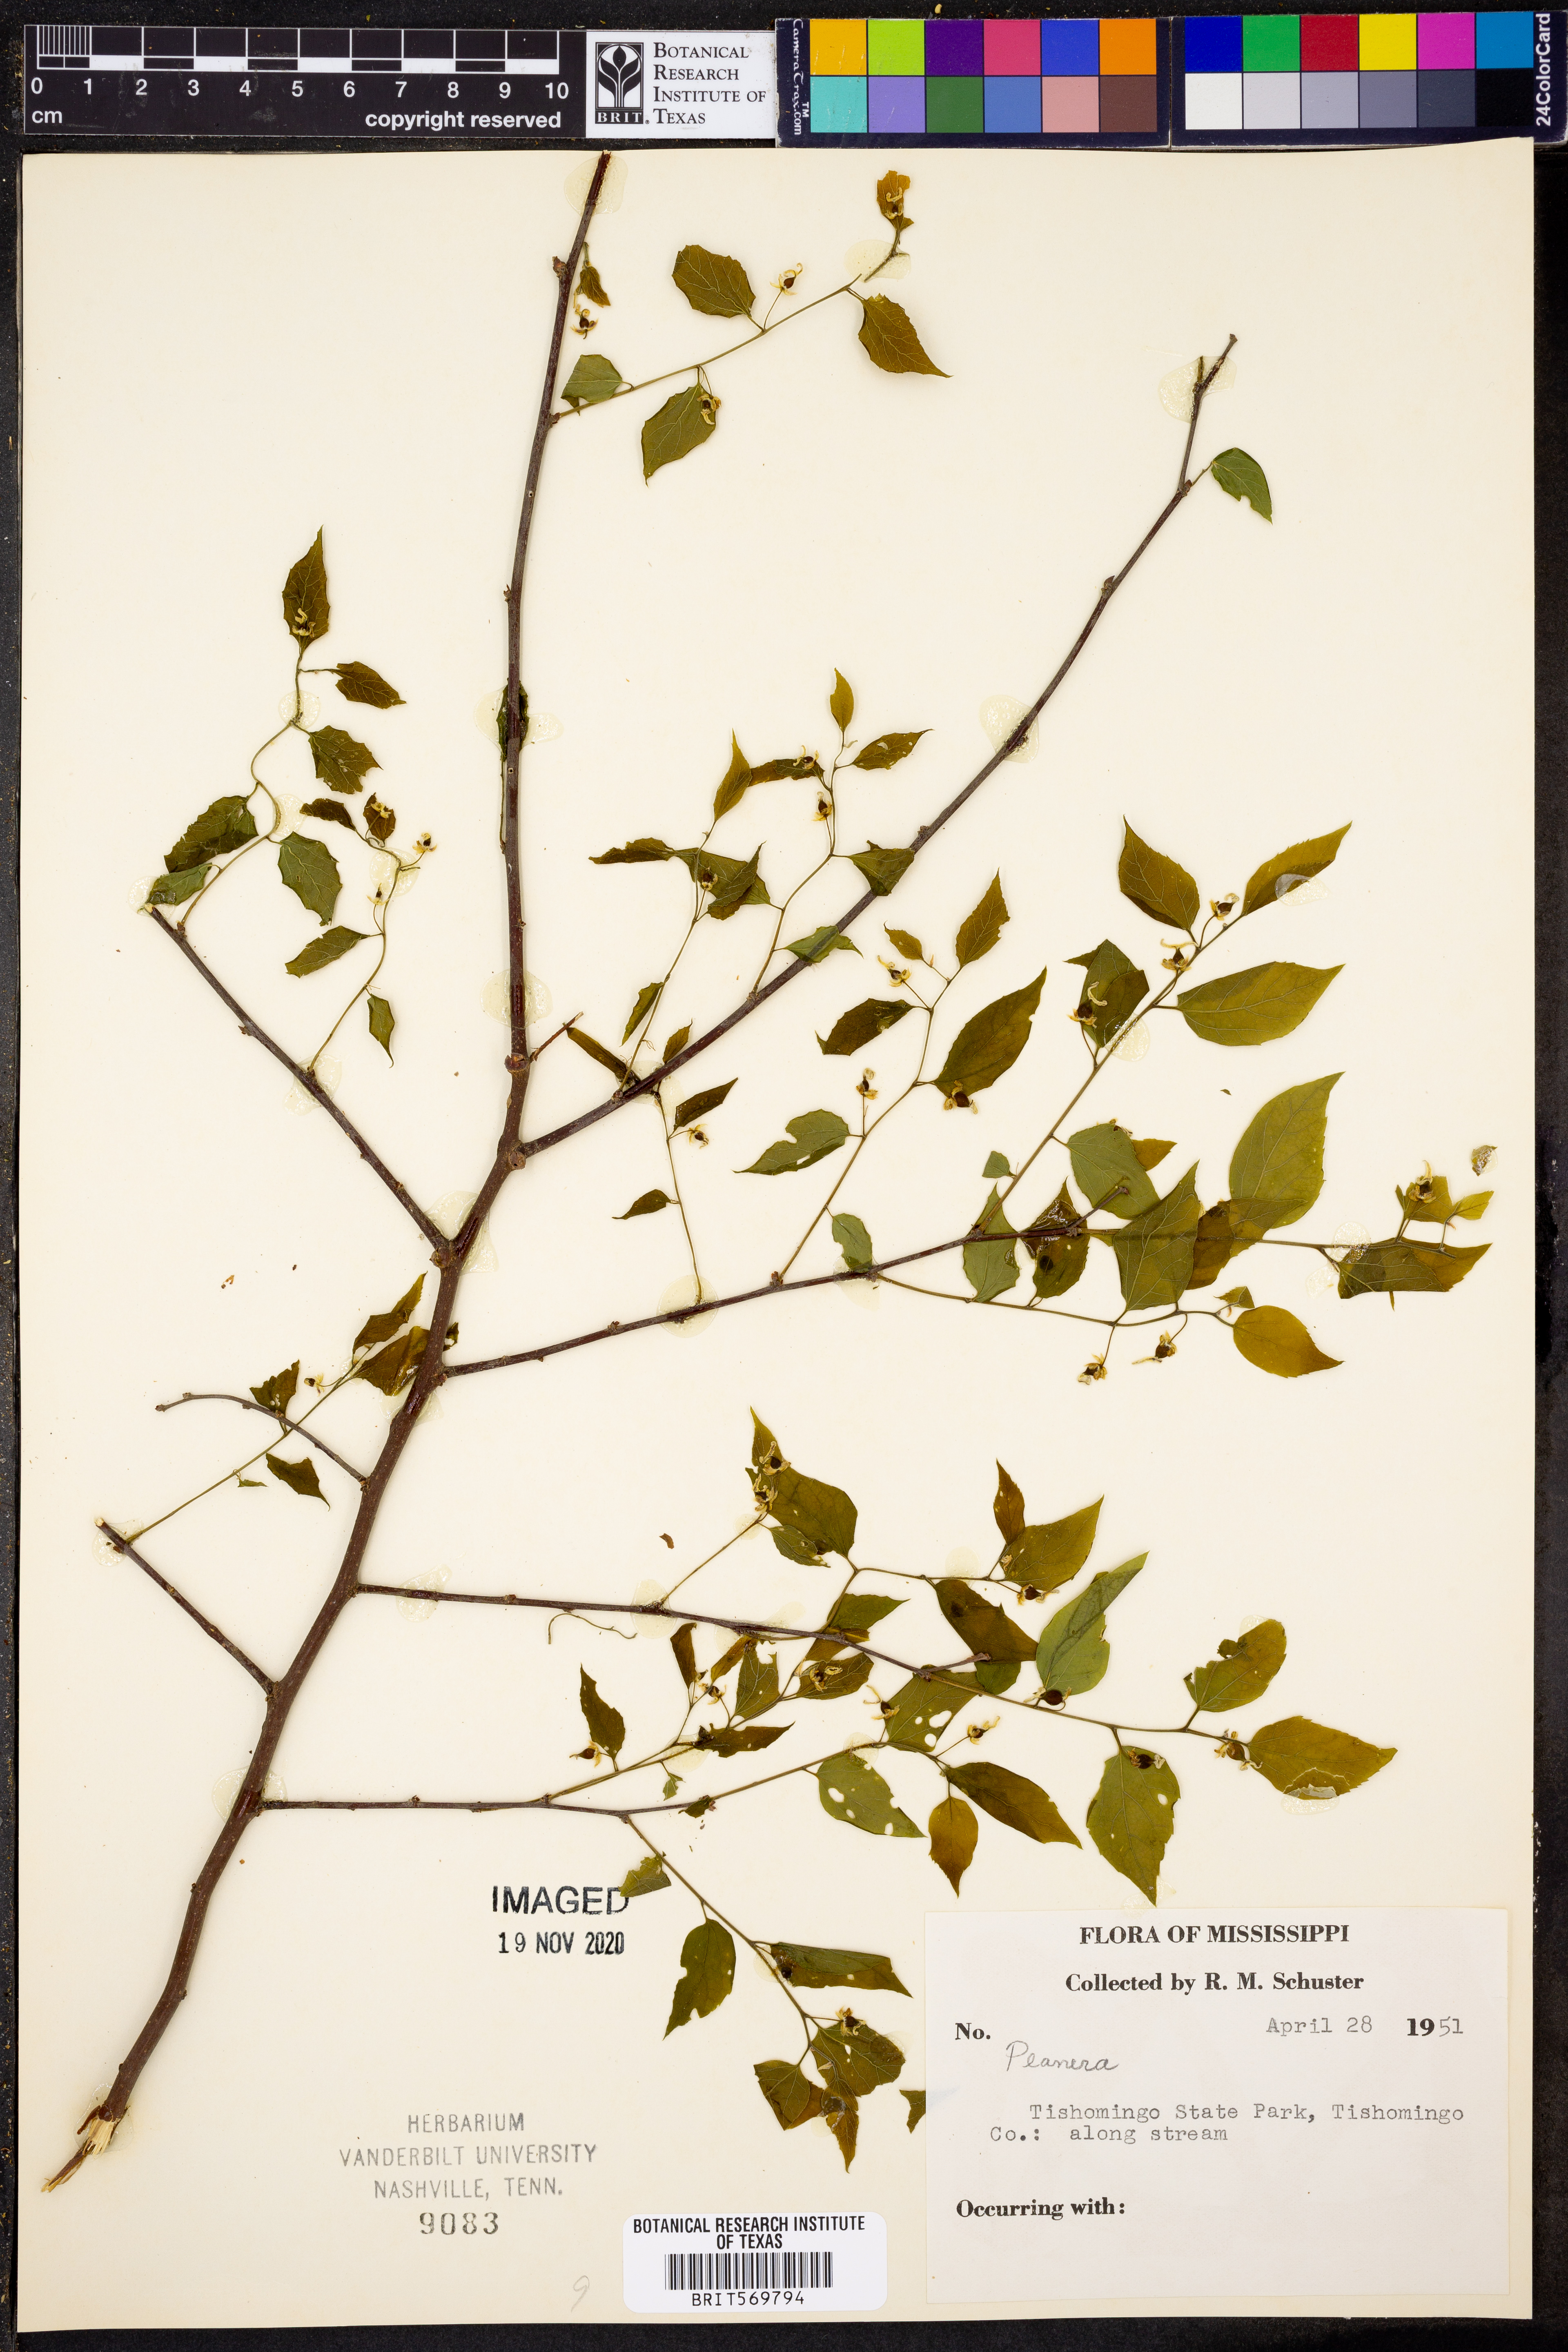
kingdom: Plantae
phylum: Tracheophyta
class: Magnoliopsida
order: Rosales
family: Ulmaceae
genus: Planera
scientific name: Planera
